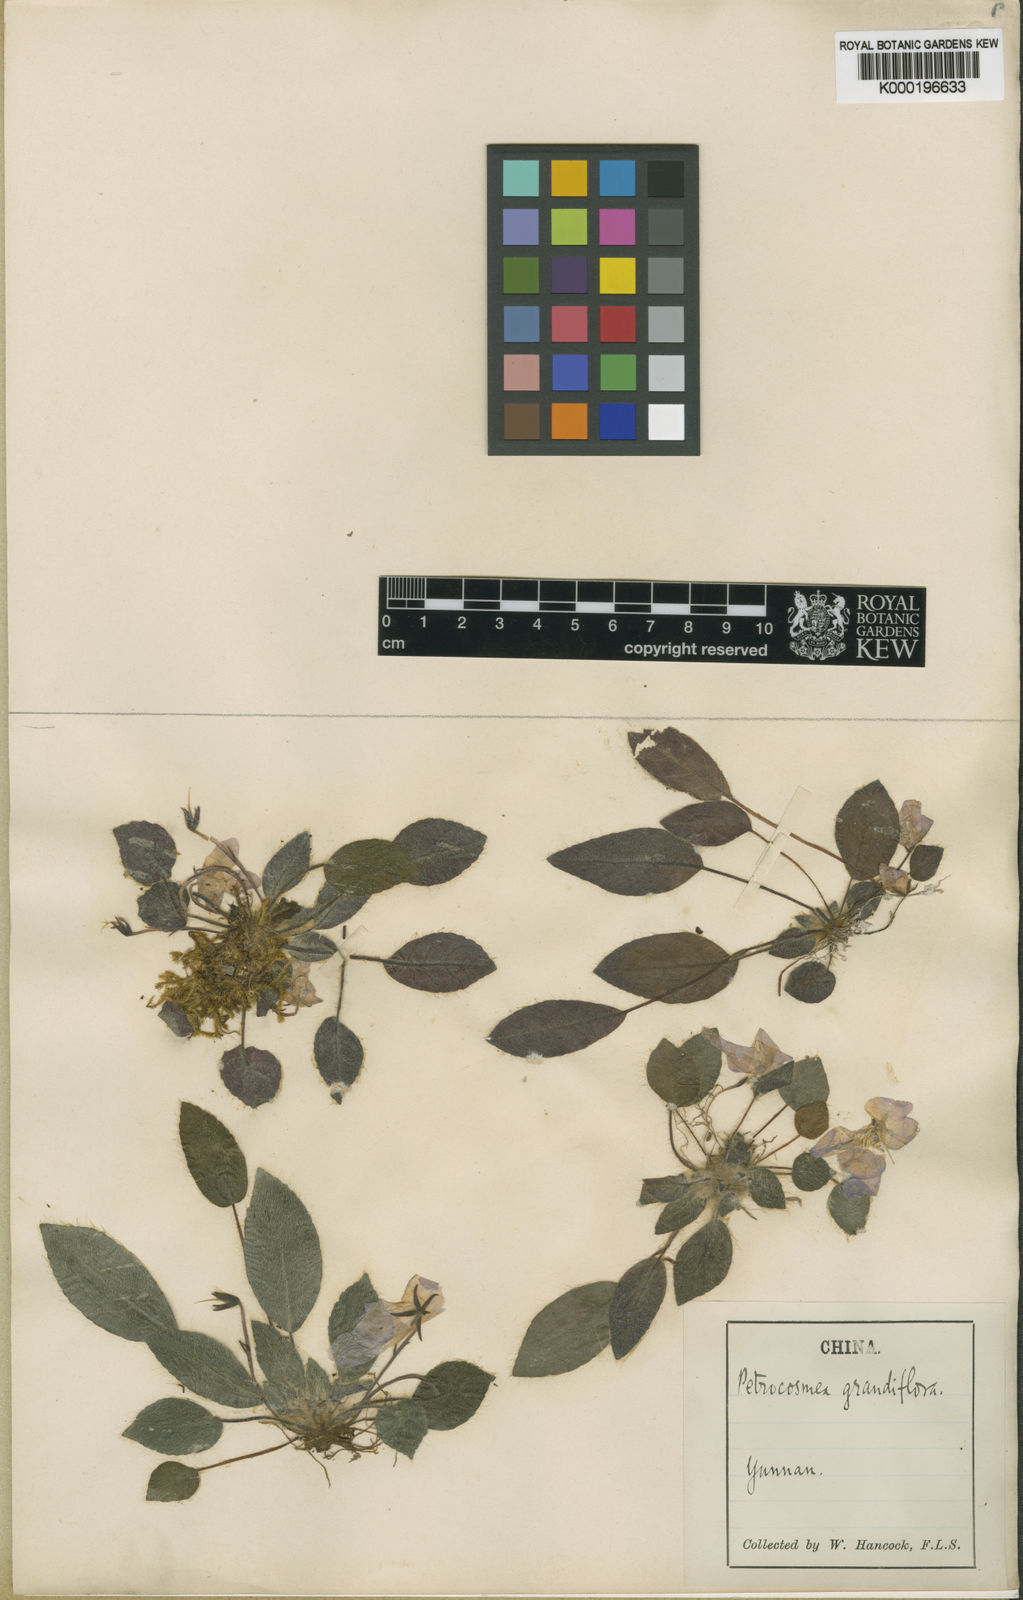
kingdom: Plantae
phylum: Tracheophyta
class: Magnoliopsida
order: Lamiales
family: Gesneriaceae
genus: Petrocosmea
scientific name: Petrocosmea grandiflora
